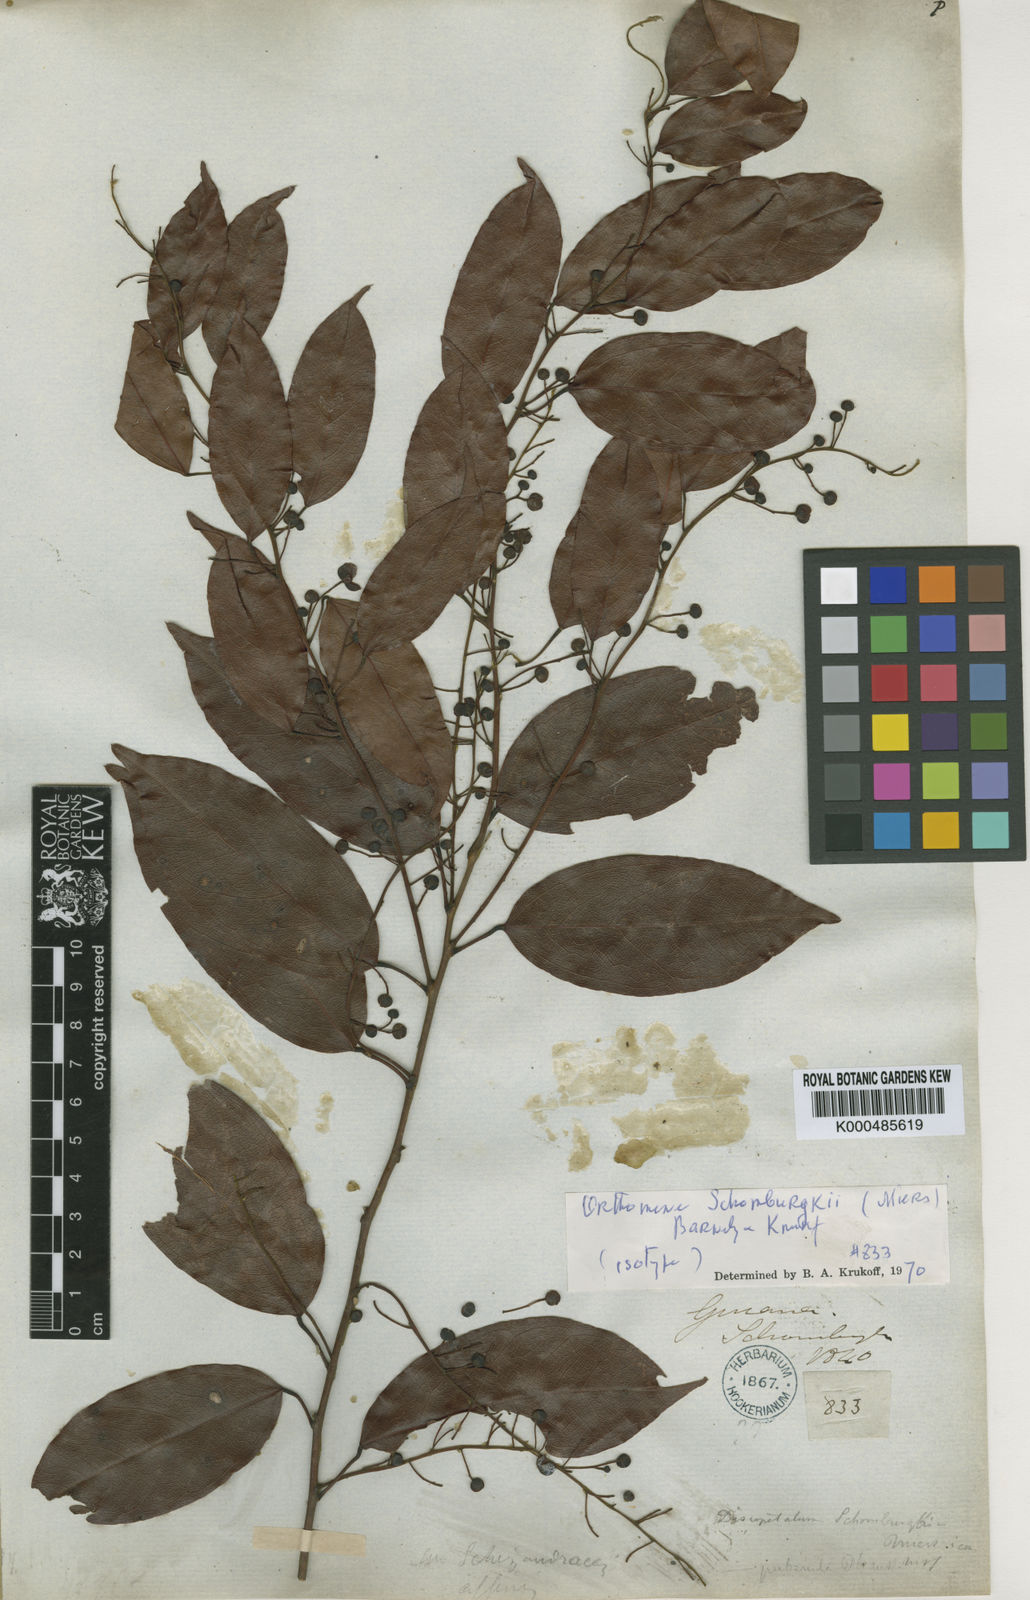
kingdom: Plantae
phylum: Tracheophyta
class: Magnoliopsida
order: Ranunculales
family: Menispermaceae
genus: Orthomene
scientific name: Orthomene schomburgkii
